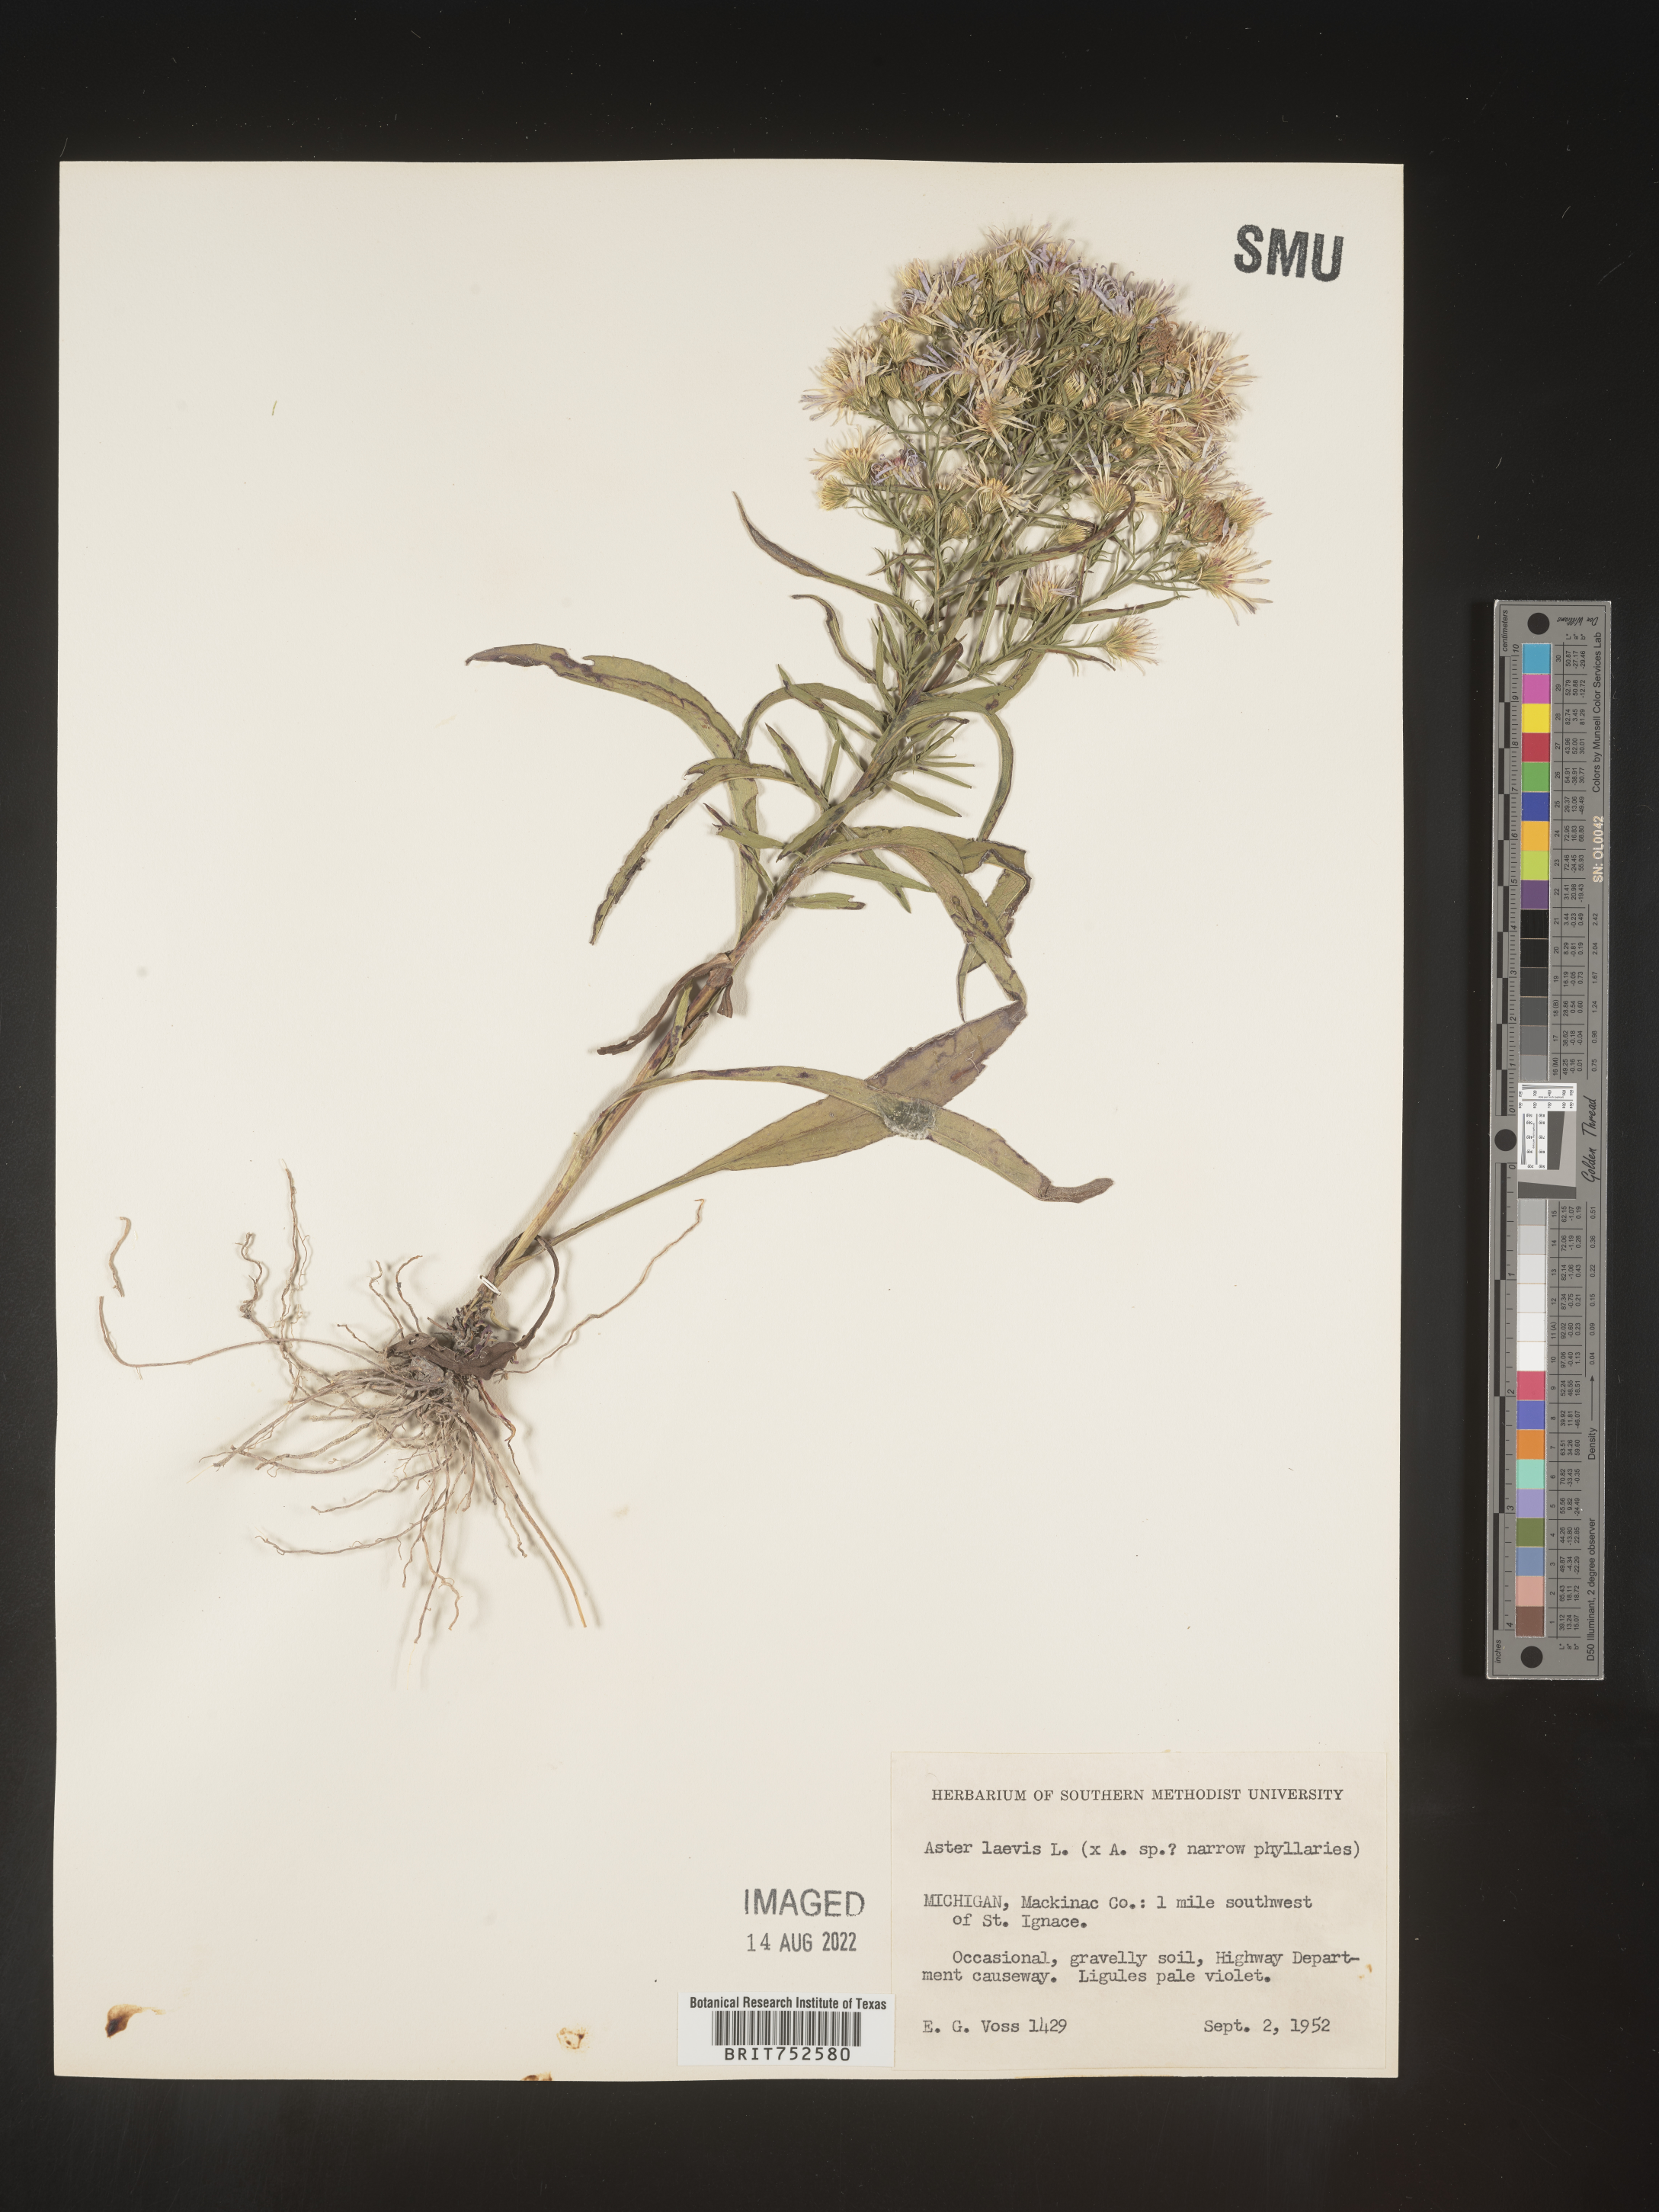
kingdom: Plantae
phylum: Tracheophyta
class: Magnoliopsida
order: Asterales
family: Asteraceae
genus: Symphyotrichum
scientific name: Symphyotrichum laeve
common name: Glaucous aster
